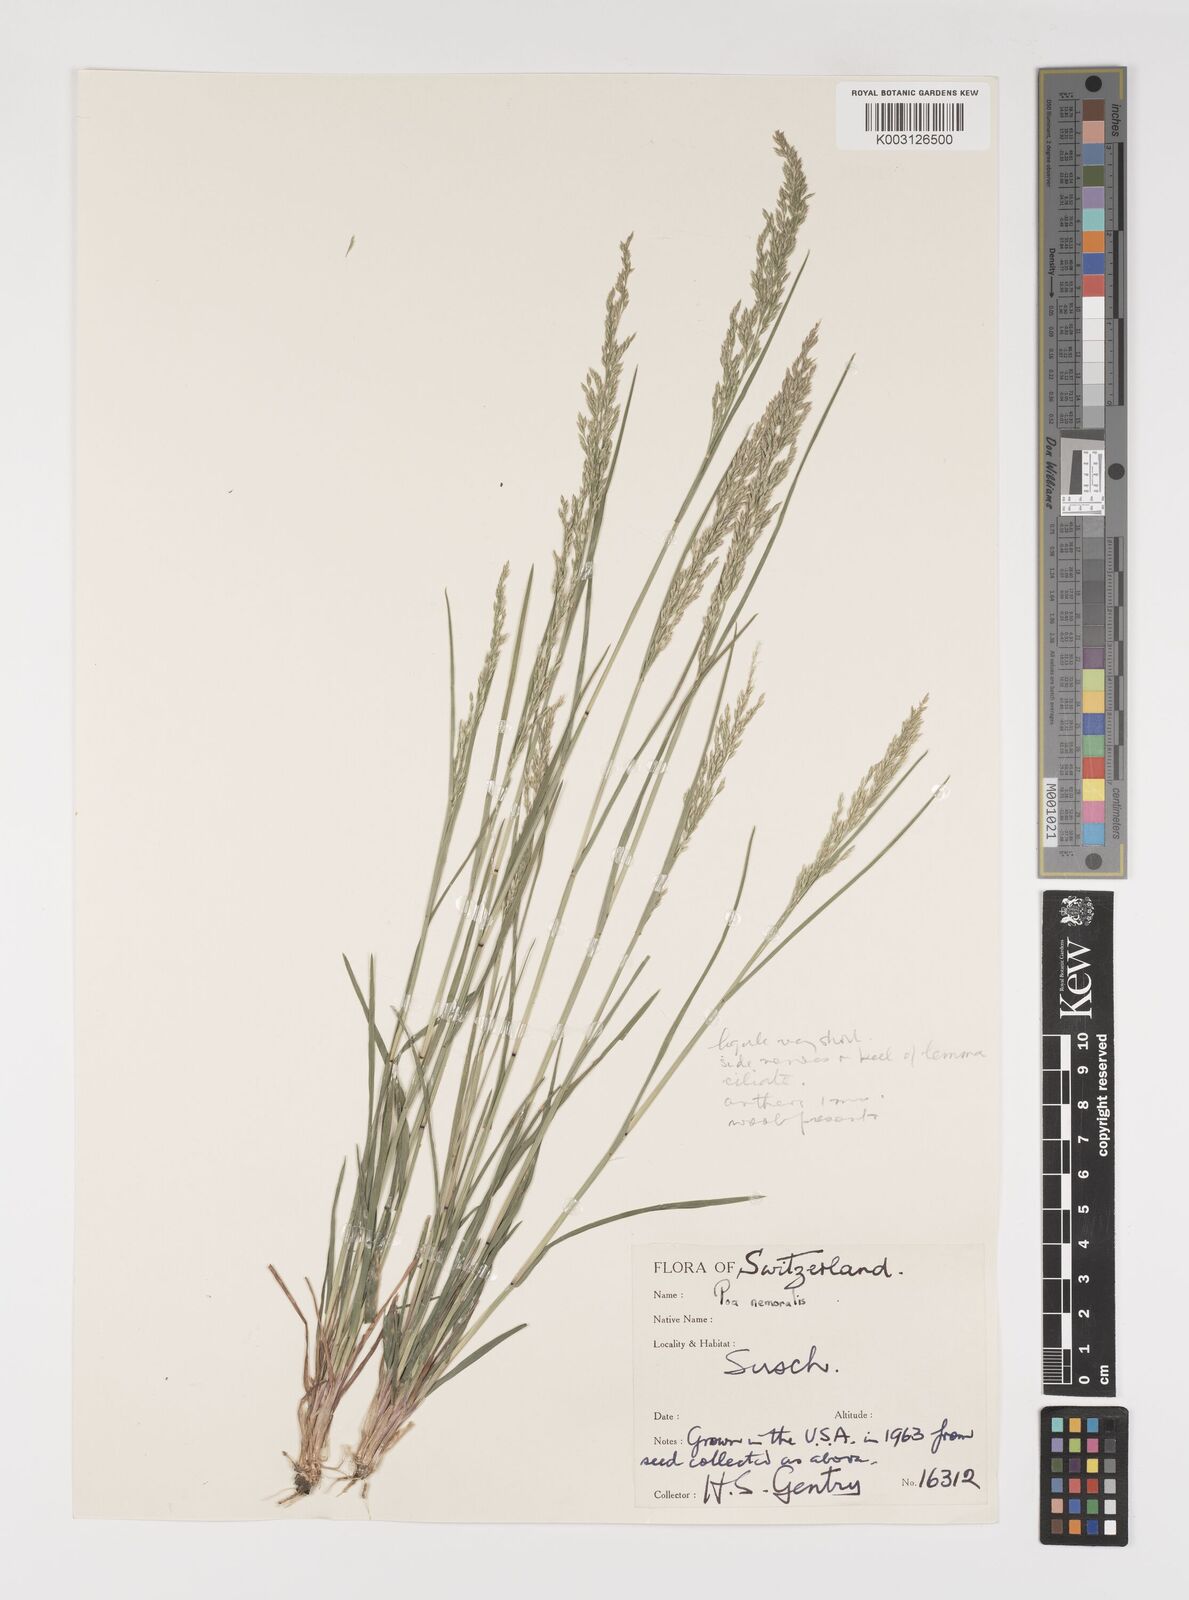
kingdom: Plantae
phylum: Tracheophyta
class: Liliopsida
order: Poales
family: Poaceae
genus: Poa
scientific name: Poa nemoralis
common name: Wood bluegrass
